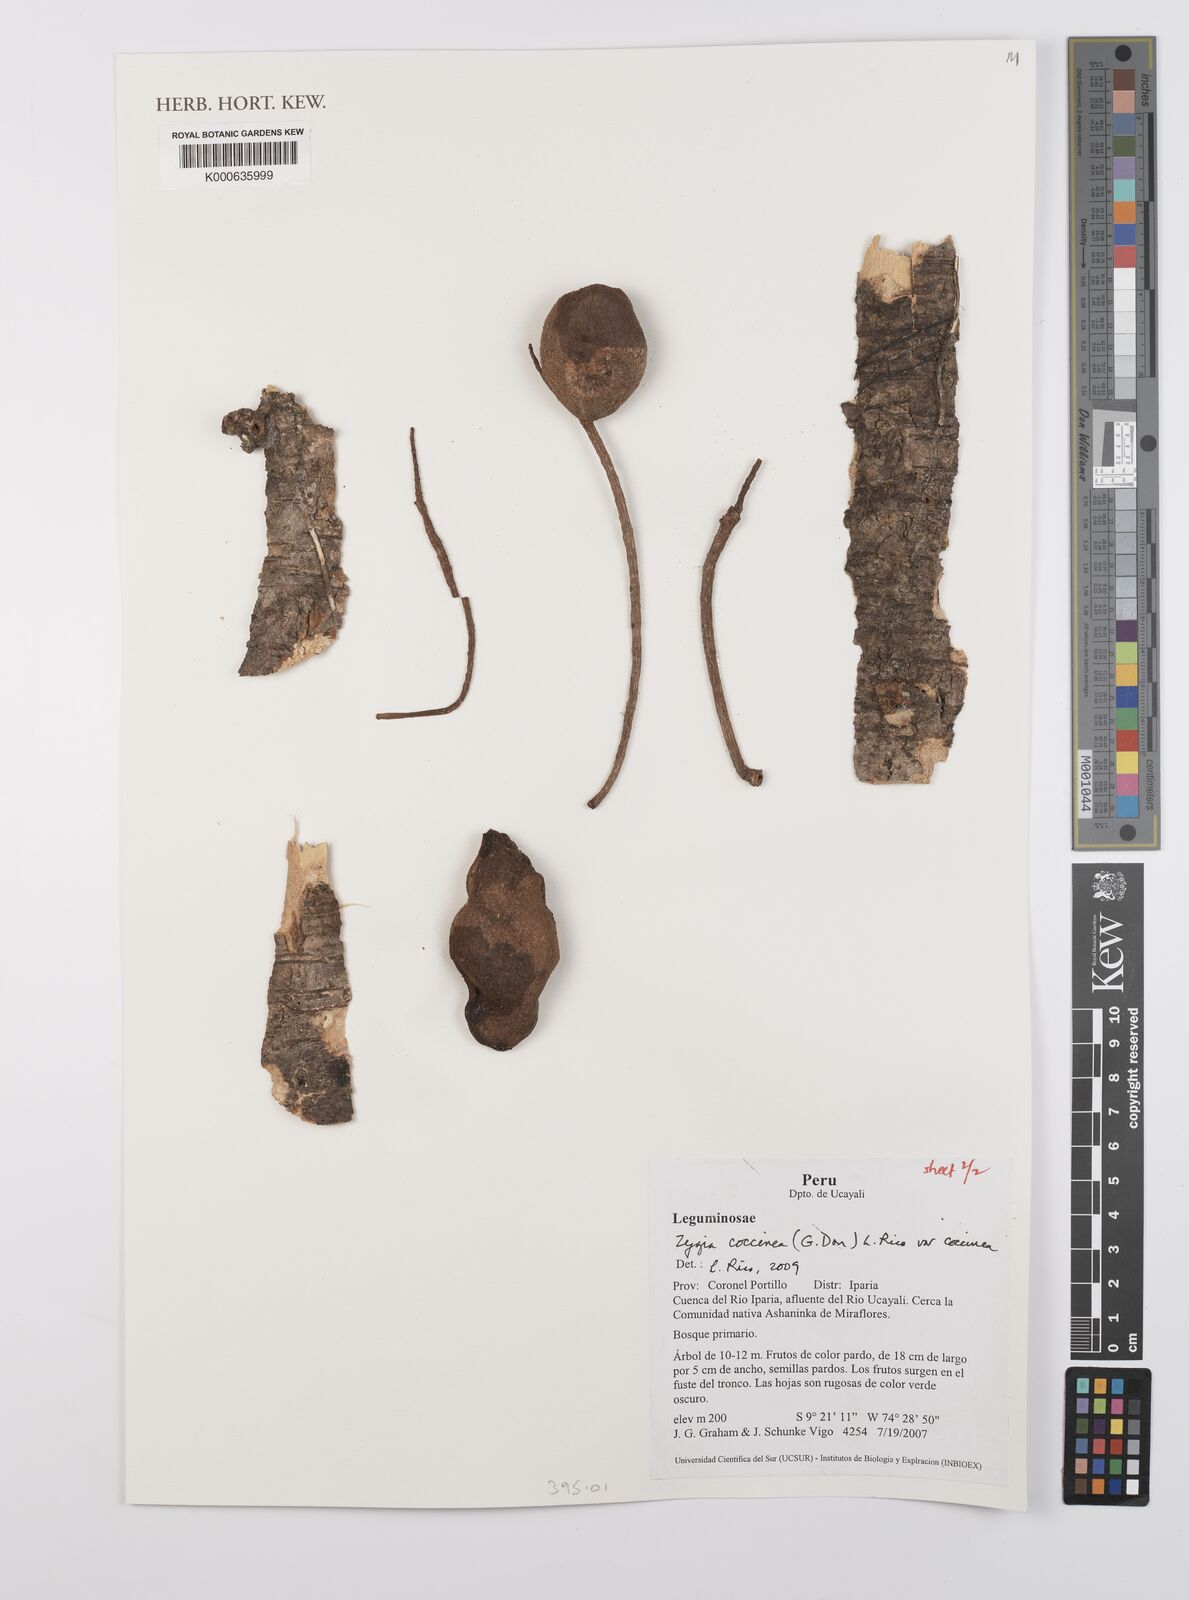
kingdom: Plantae
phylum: Tracheophyta
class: Magnoliopsida
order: Fabales
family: Fabaceae
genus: Zygia
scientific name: Zygia coccinea
